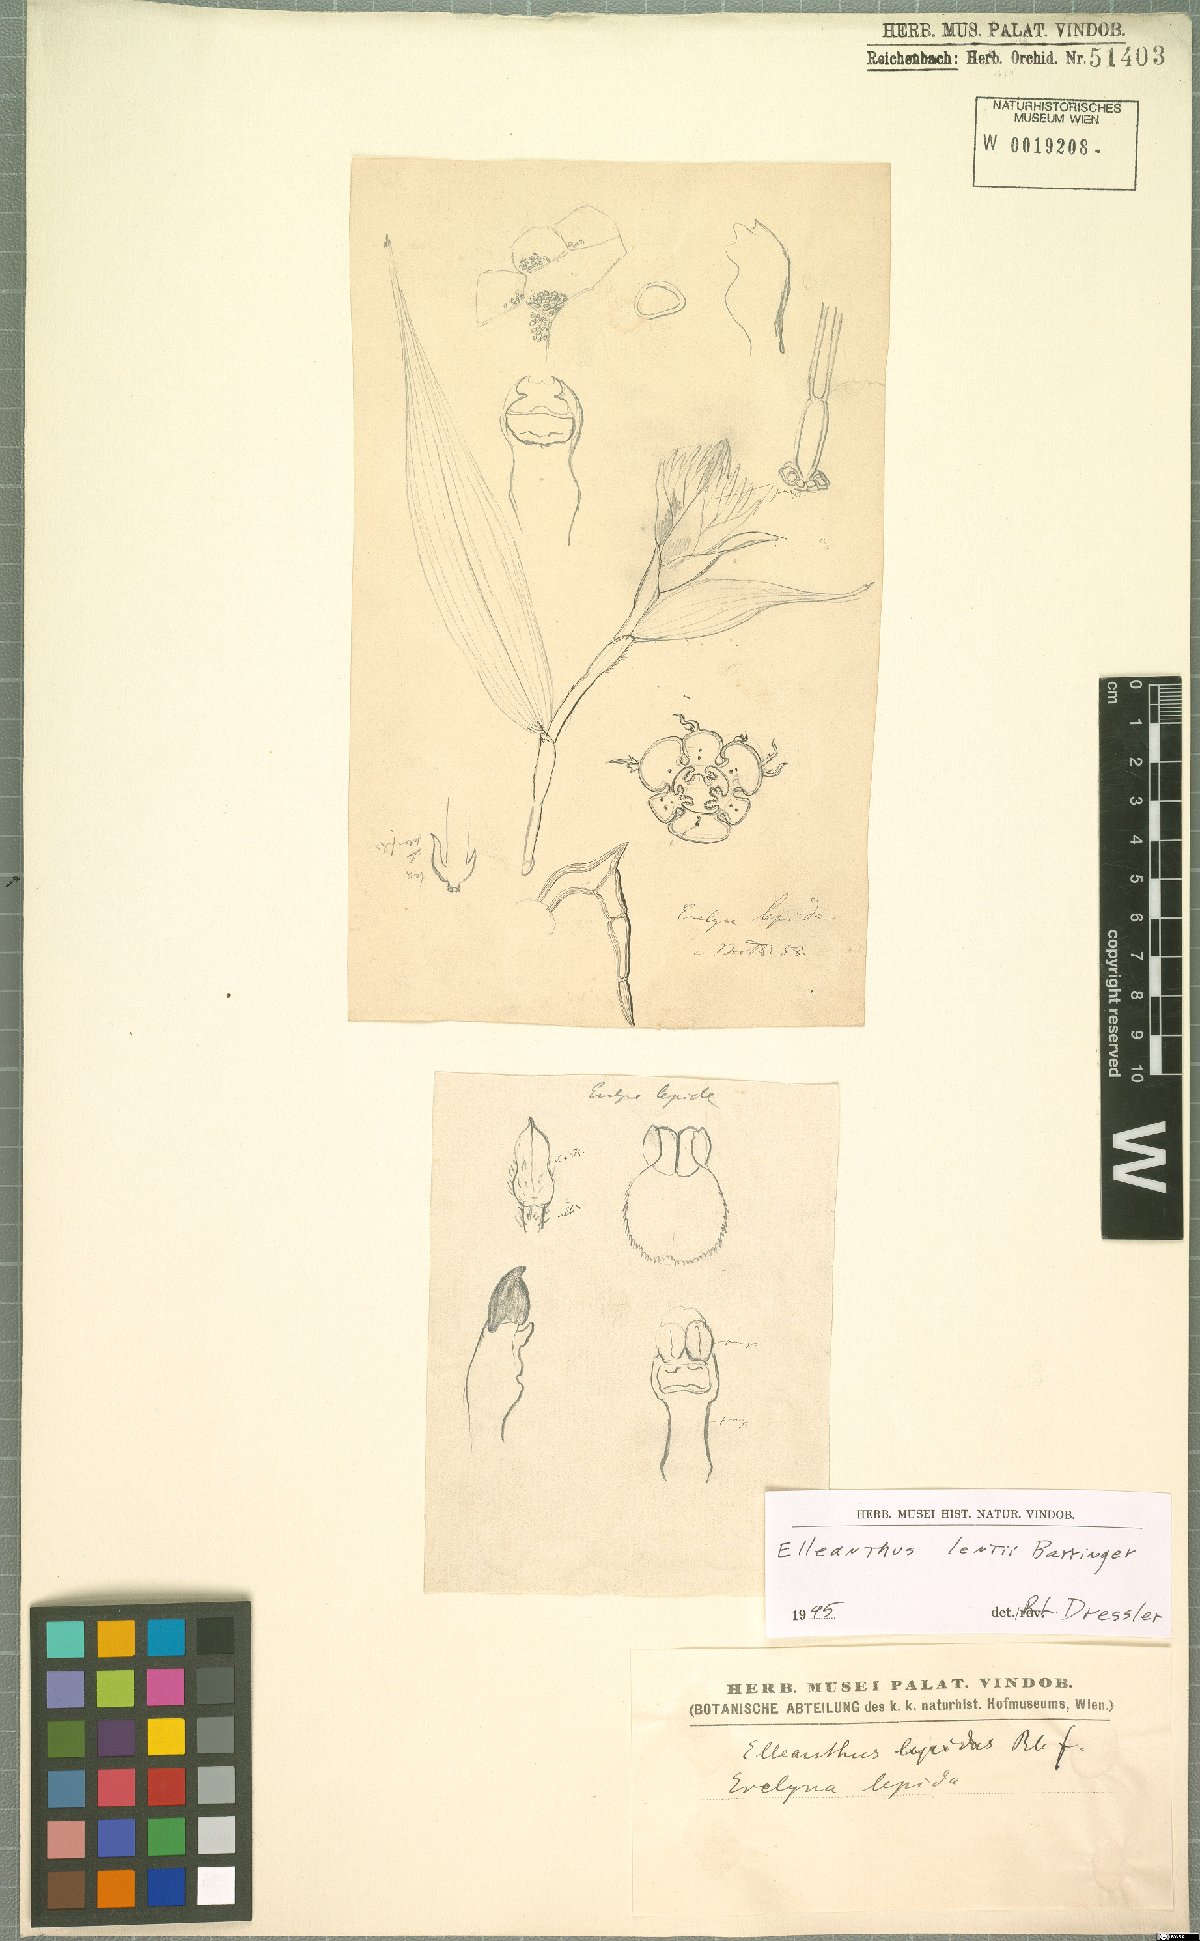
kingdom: Plantae
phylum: Tracheophyta
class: Liliopsida
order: Asparagales
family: Orchidaceae
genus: Elleanthus
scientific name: Elleanthus lentii
